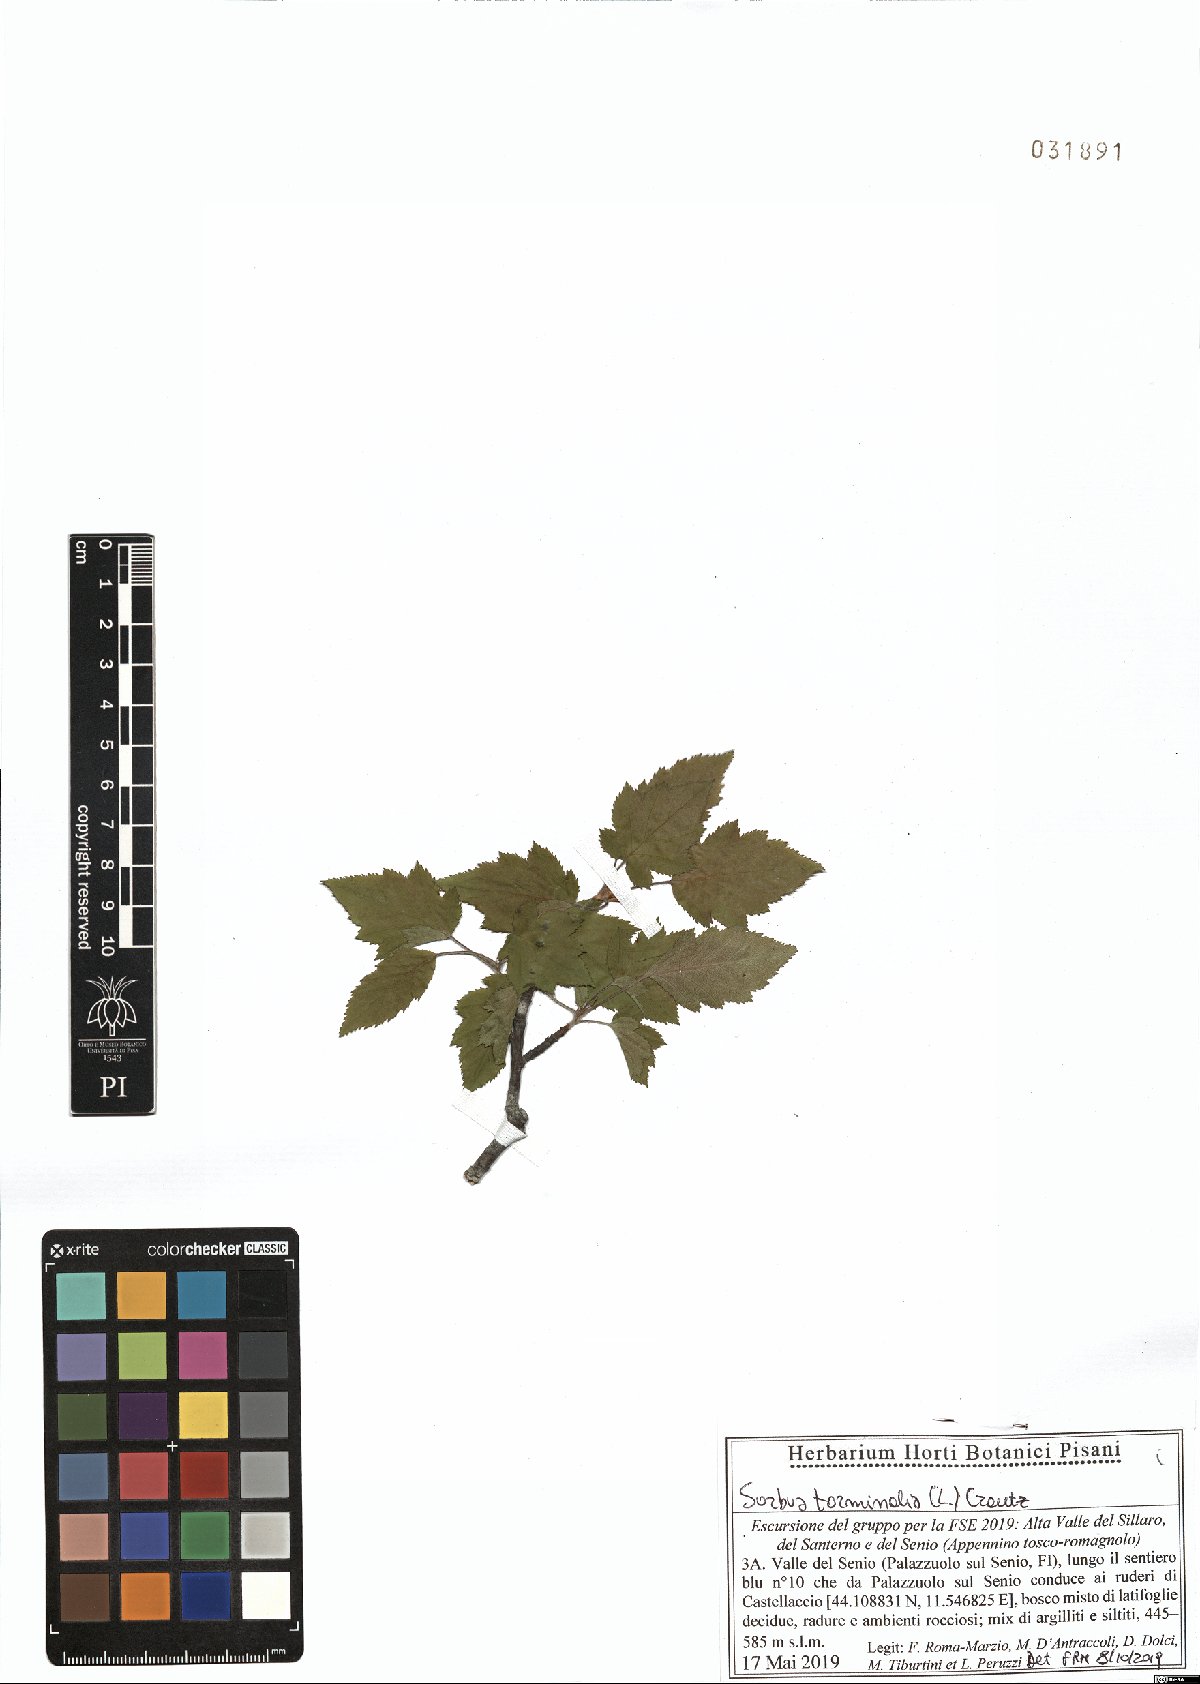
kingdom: Plantae
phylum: Tracheophyta
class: Magnoliopsida
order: Rosales
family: Rosaceae
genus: Torminalis
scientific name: Torminalis glaberrima
